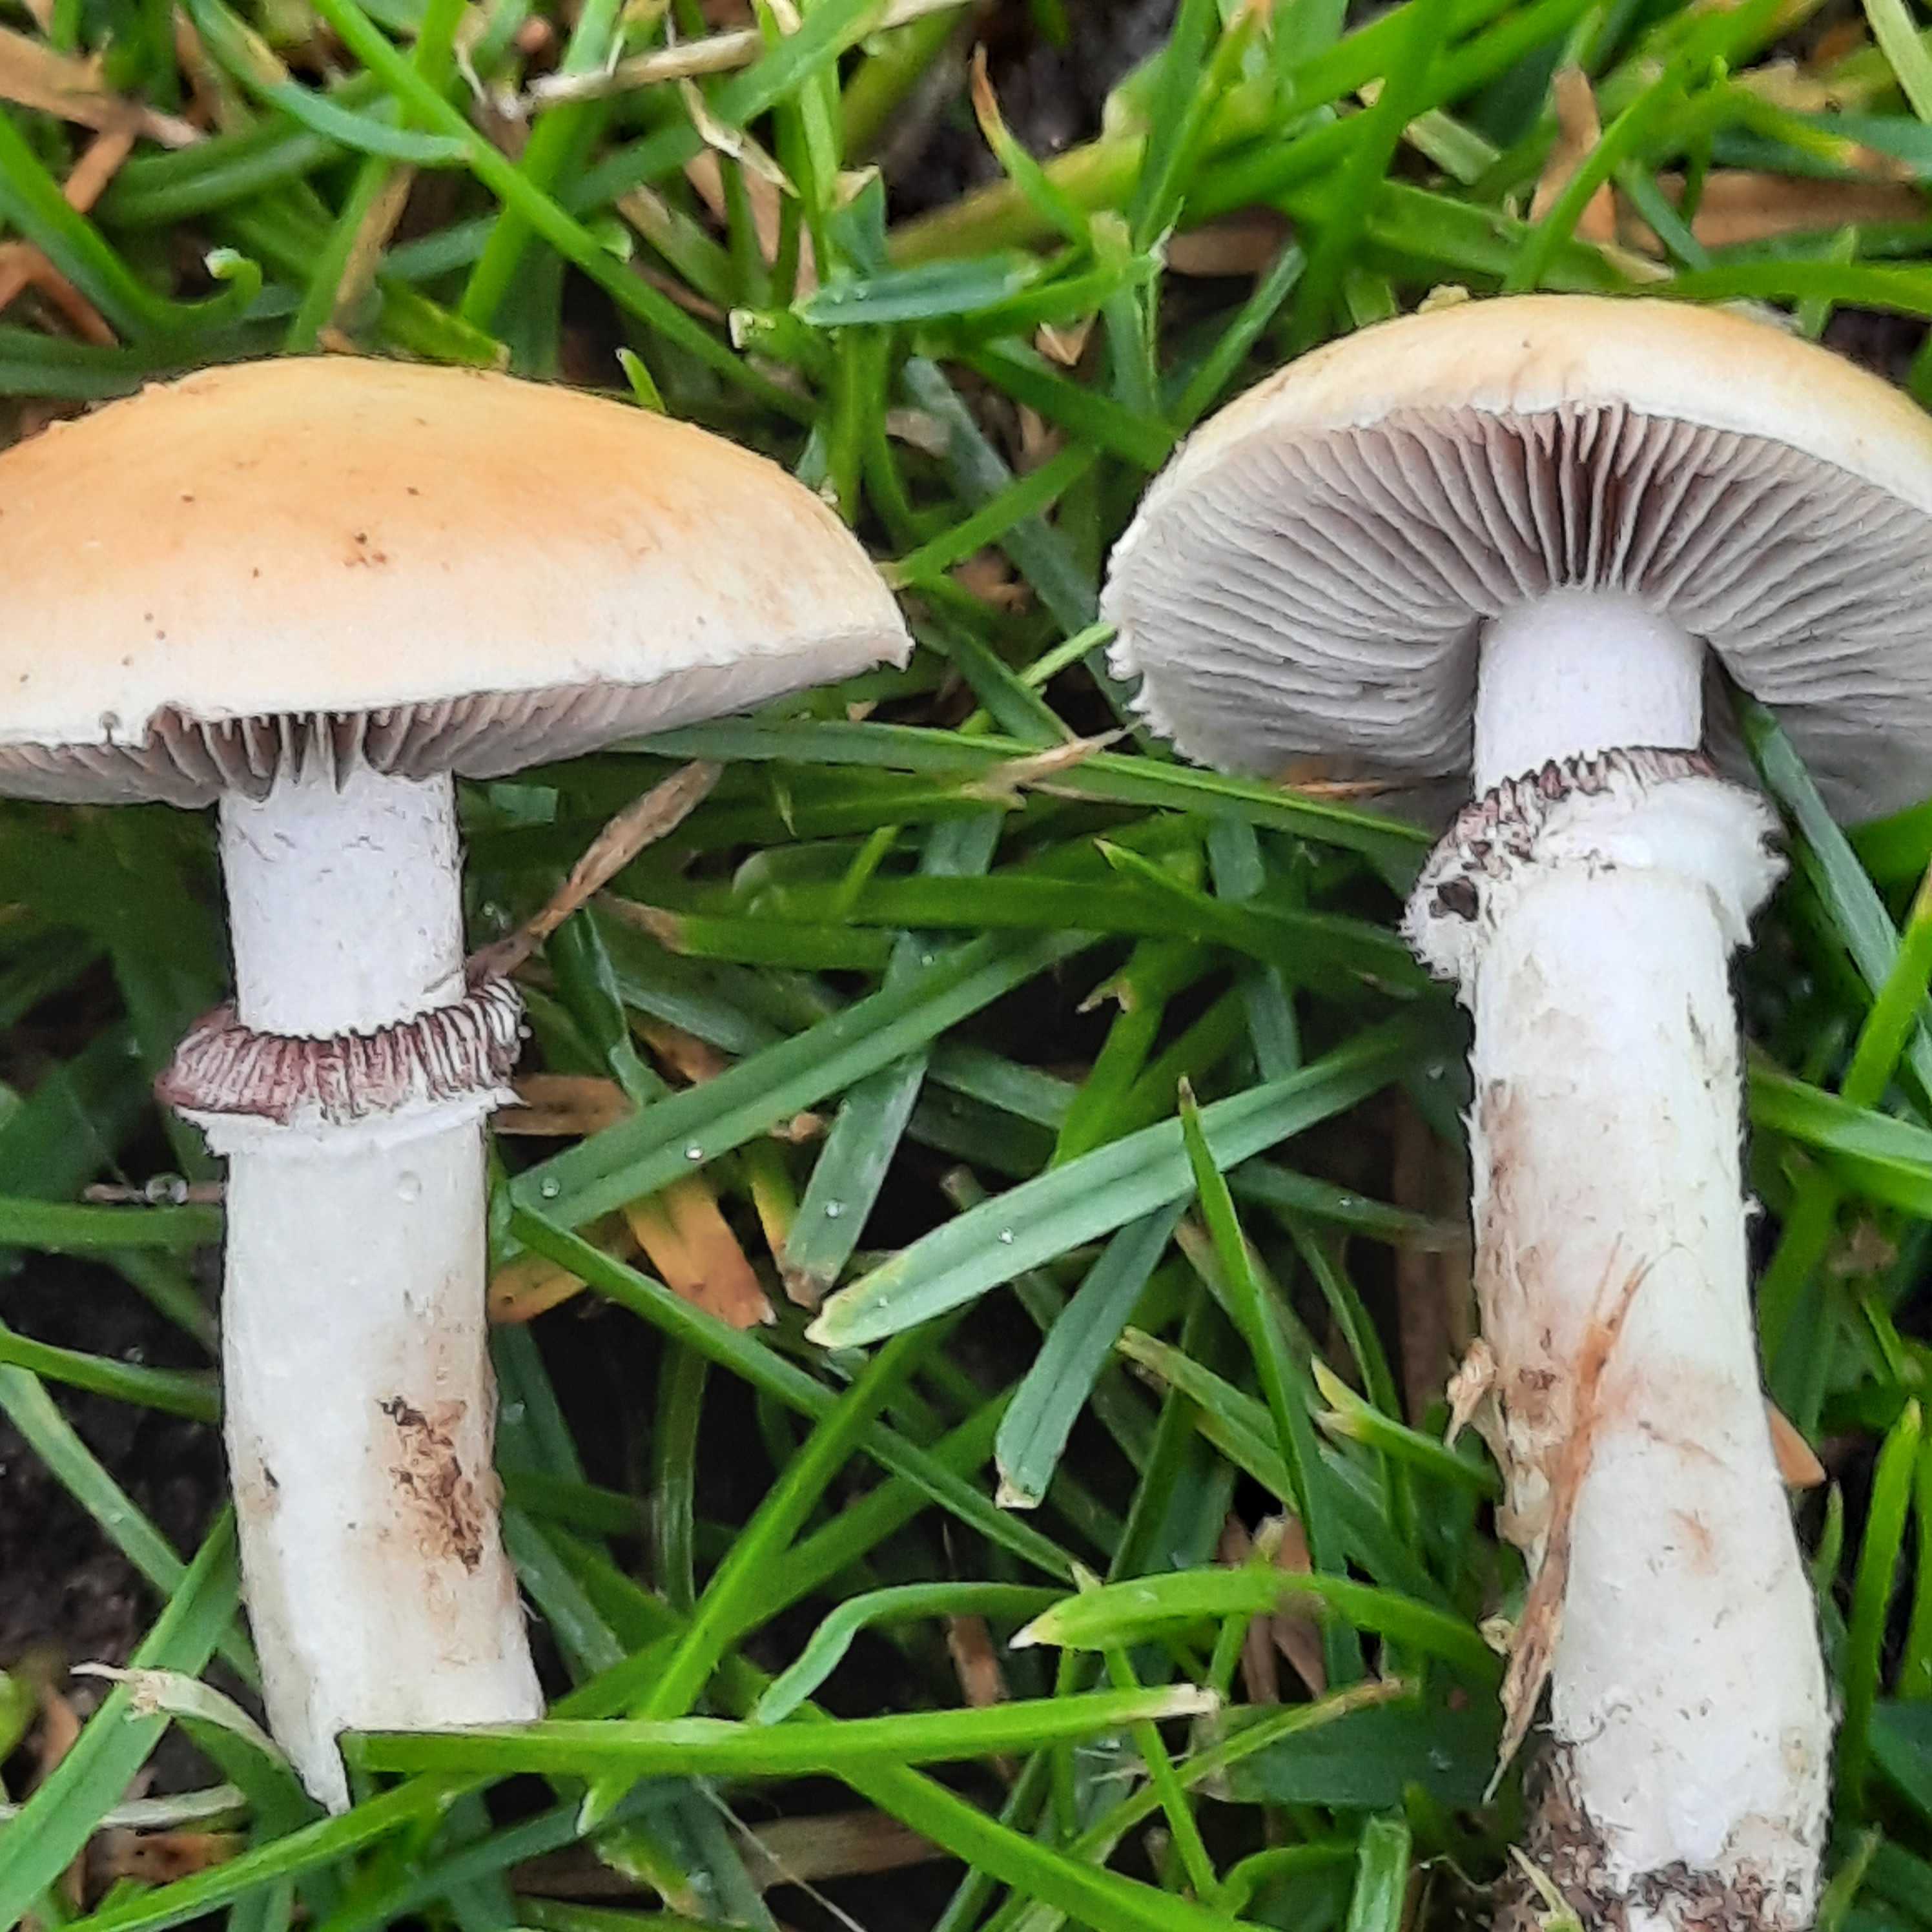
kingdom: Fungi
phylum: Basidiomycota
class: Agaricomycetes
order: Agaricales
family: Hymenogastraceae
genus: Psilocybe
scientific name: Psilocybe coronilla
